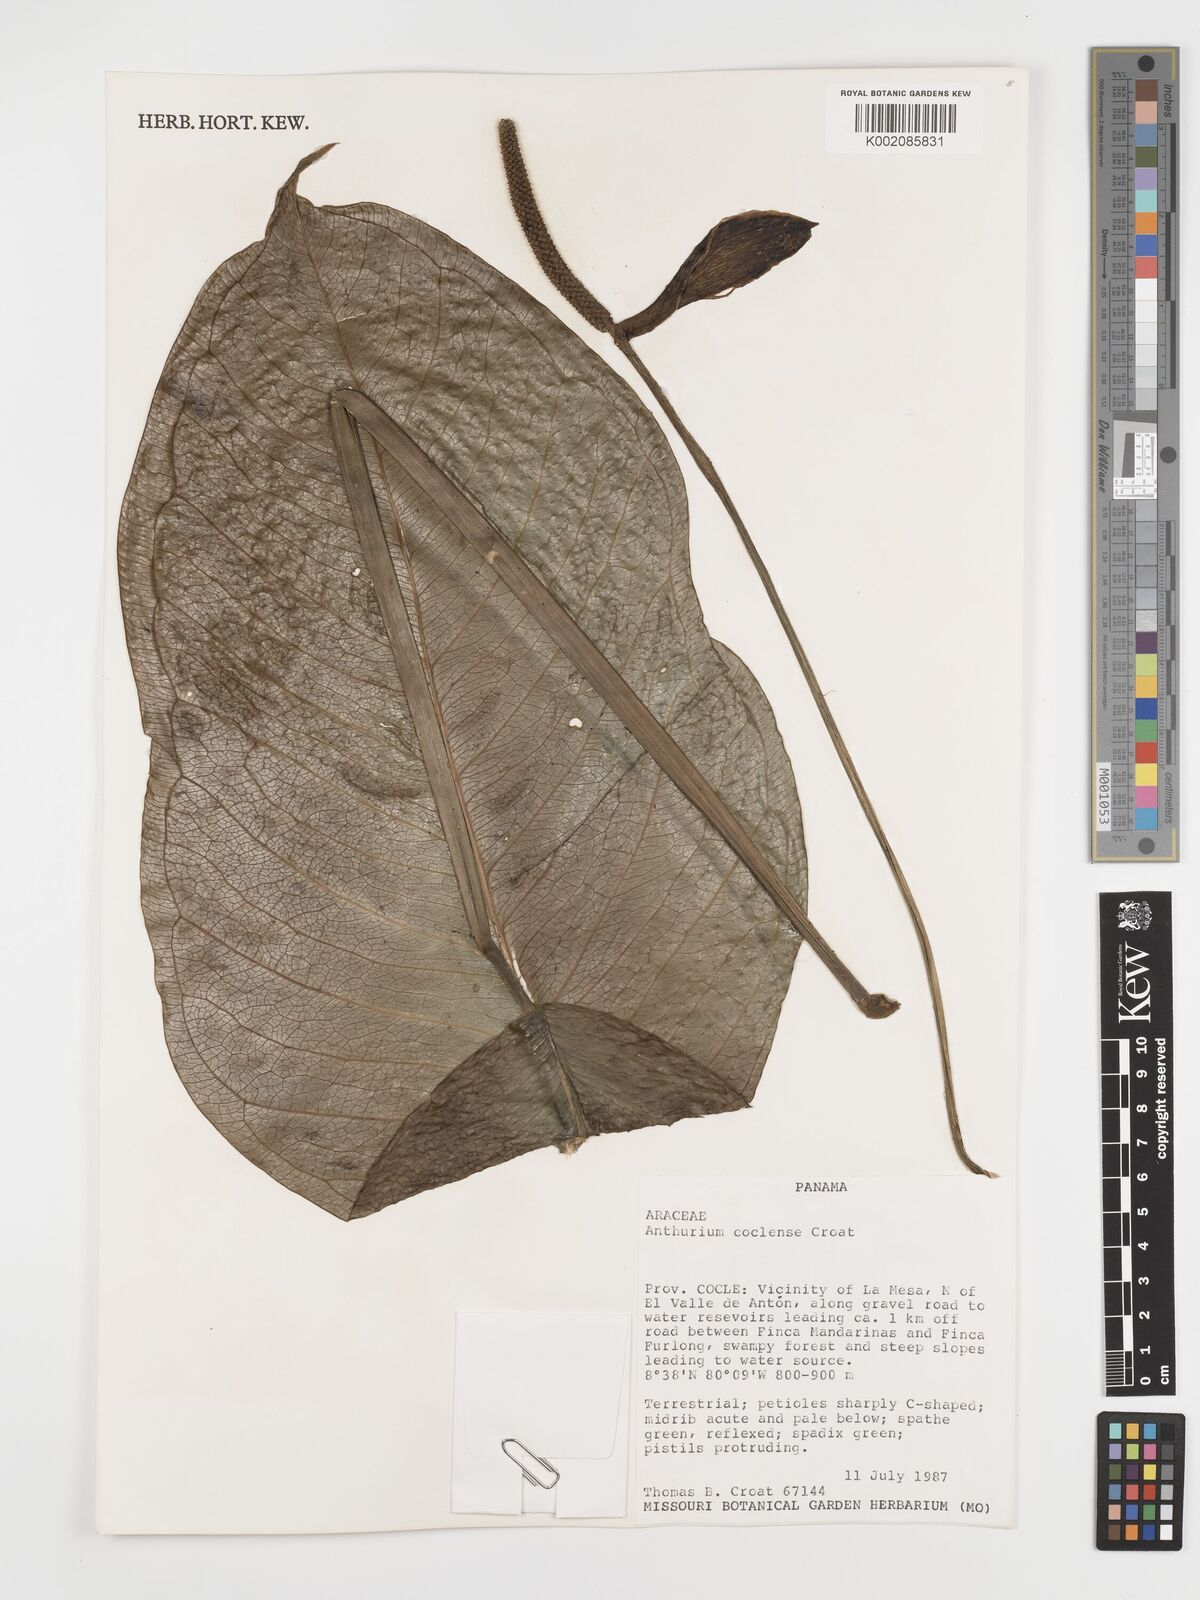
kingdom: Plantae
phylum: Tracheophyta
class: Liliopsida
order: Alismatales
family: Araceae
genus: Anthurium
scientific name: Anthurium coclense
